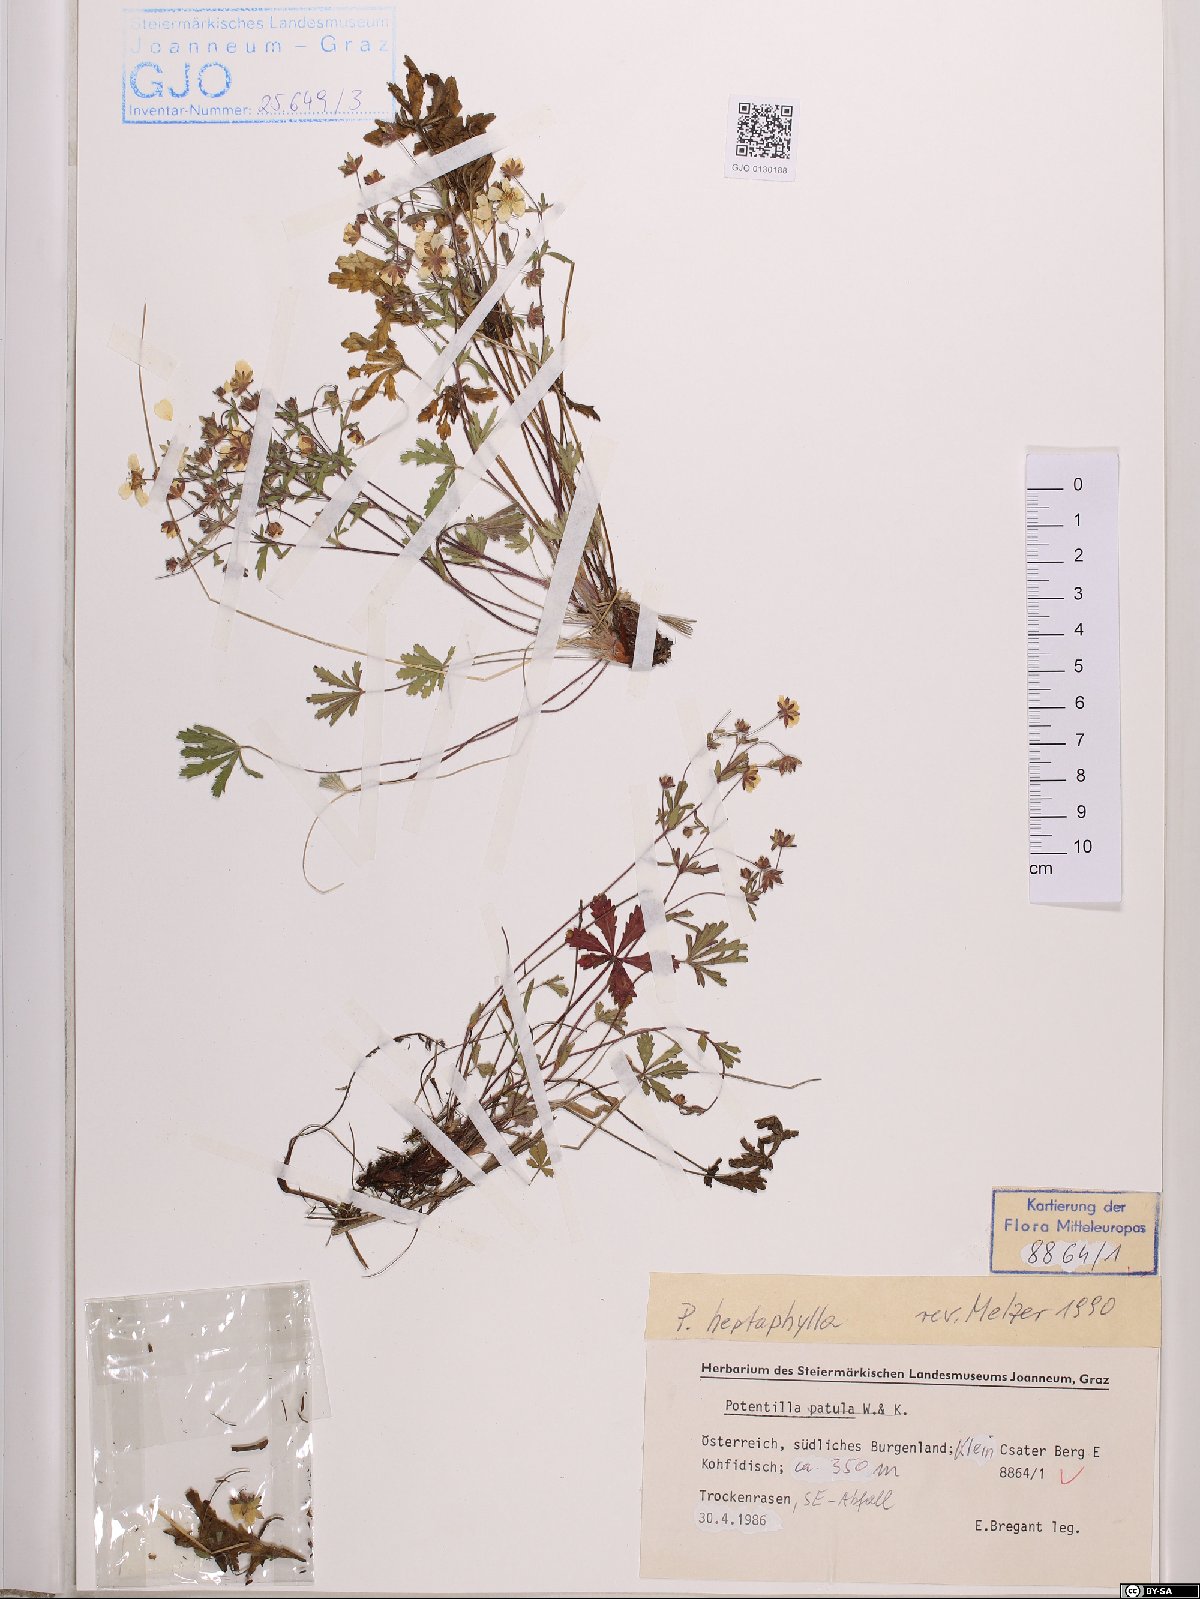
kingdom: Plantae
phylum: Tracheophyta
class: Magnoliopsida
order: Rosales
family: Rosaceae
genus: Potentilla
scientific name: Potentilla heptaphylla
